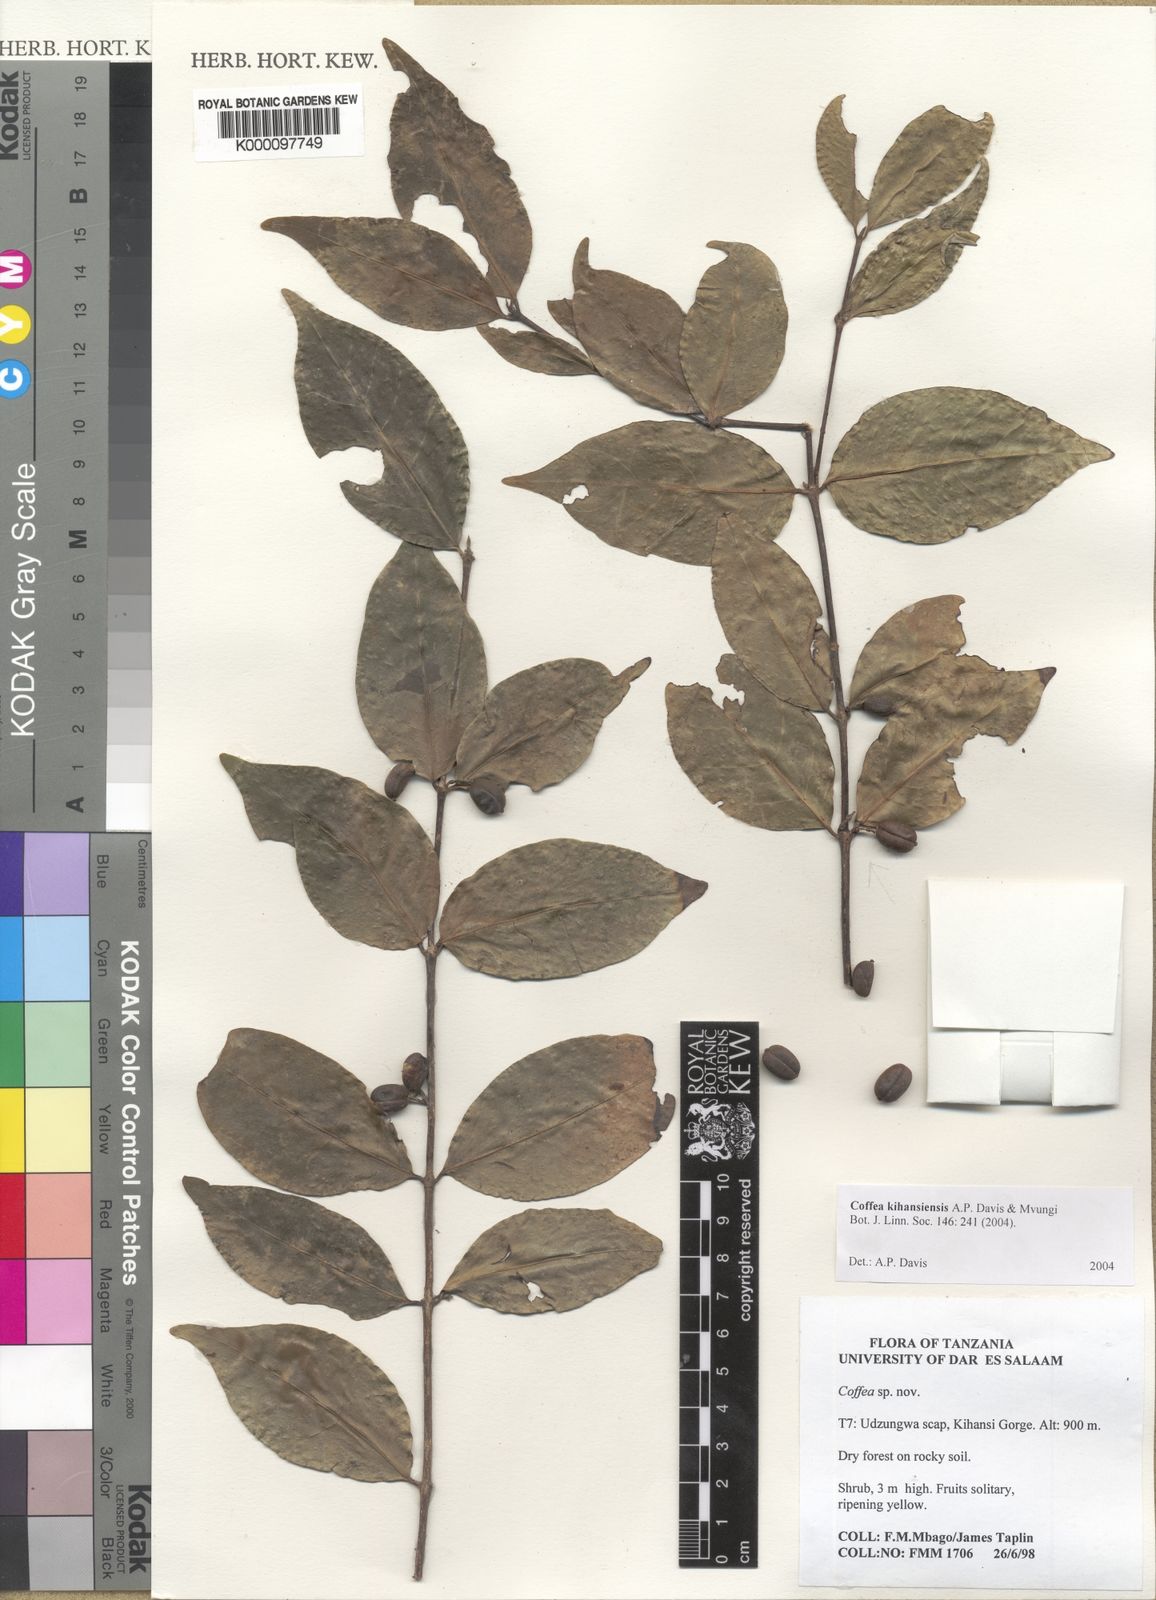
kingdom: Plantae
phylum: Tracheophyta
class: Magnoliopsida
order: Gentianales
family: Rubiaceae
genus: Coffea
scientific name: Coffea kihansiensis
